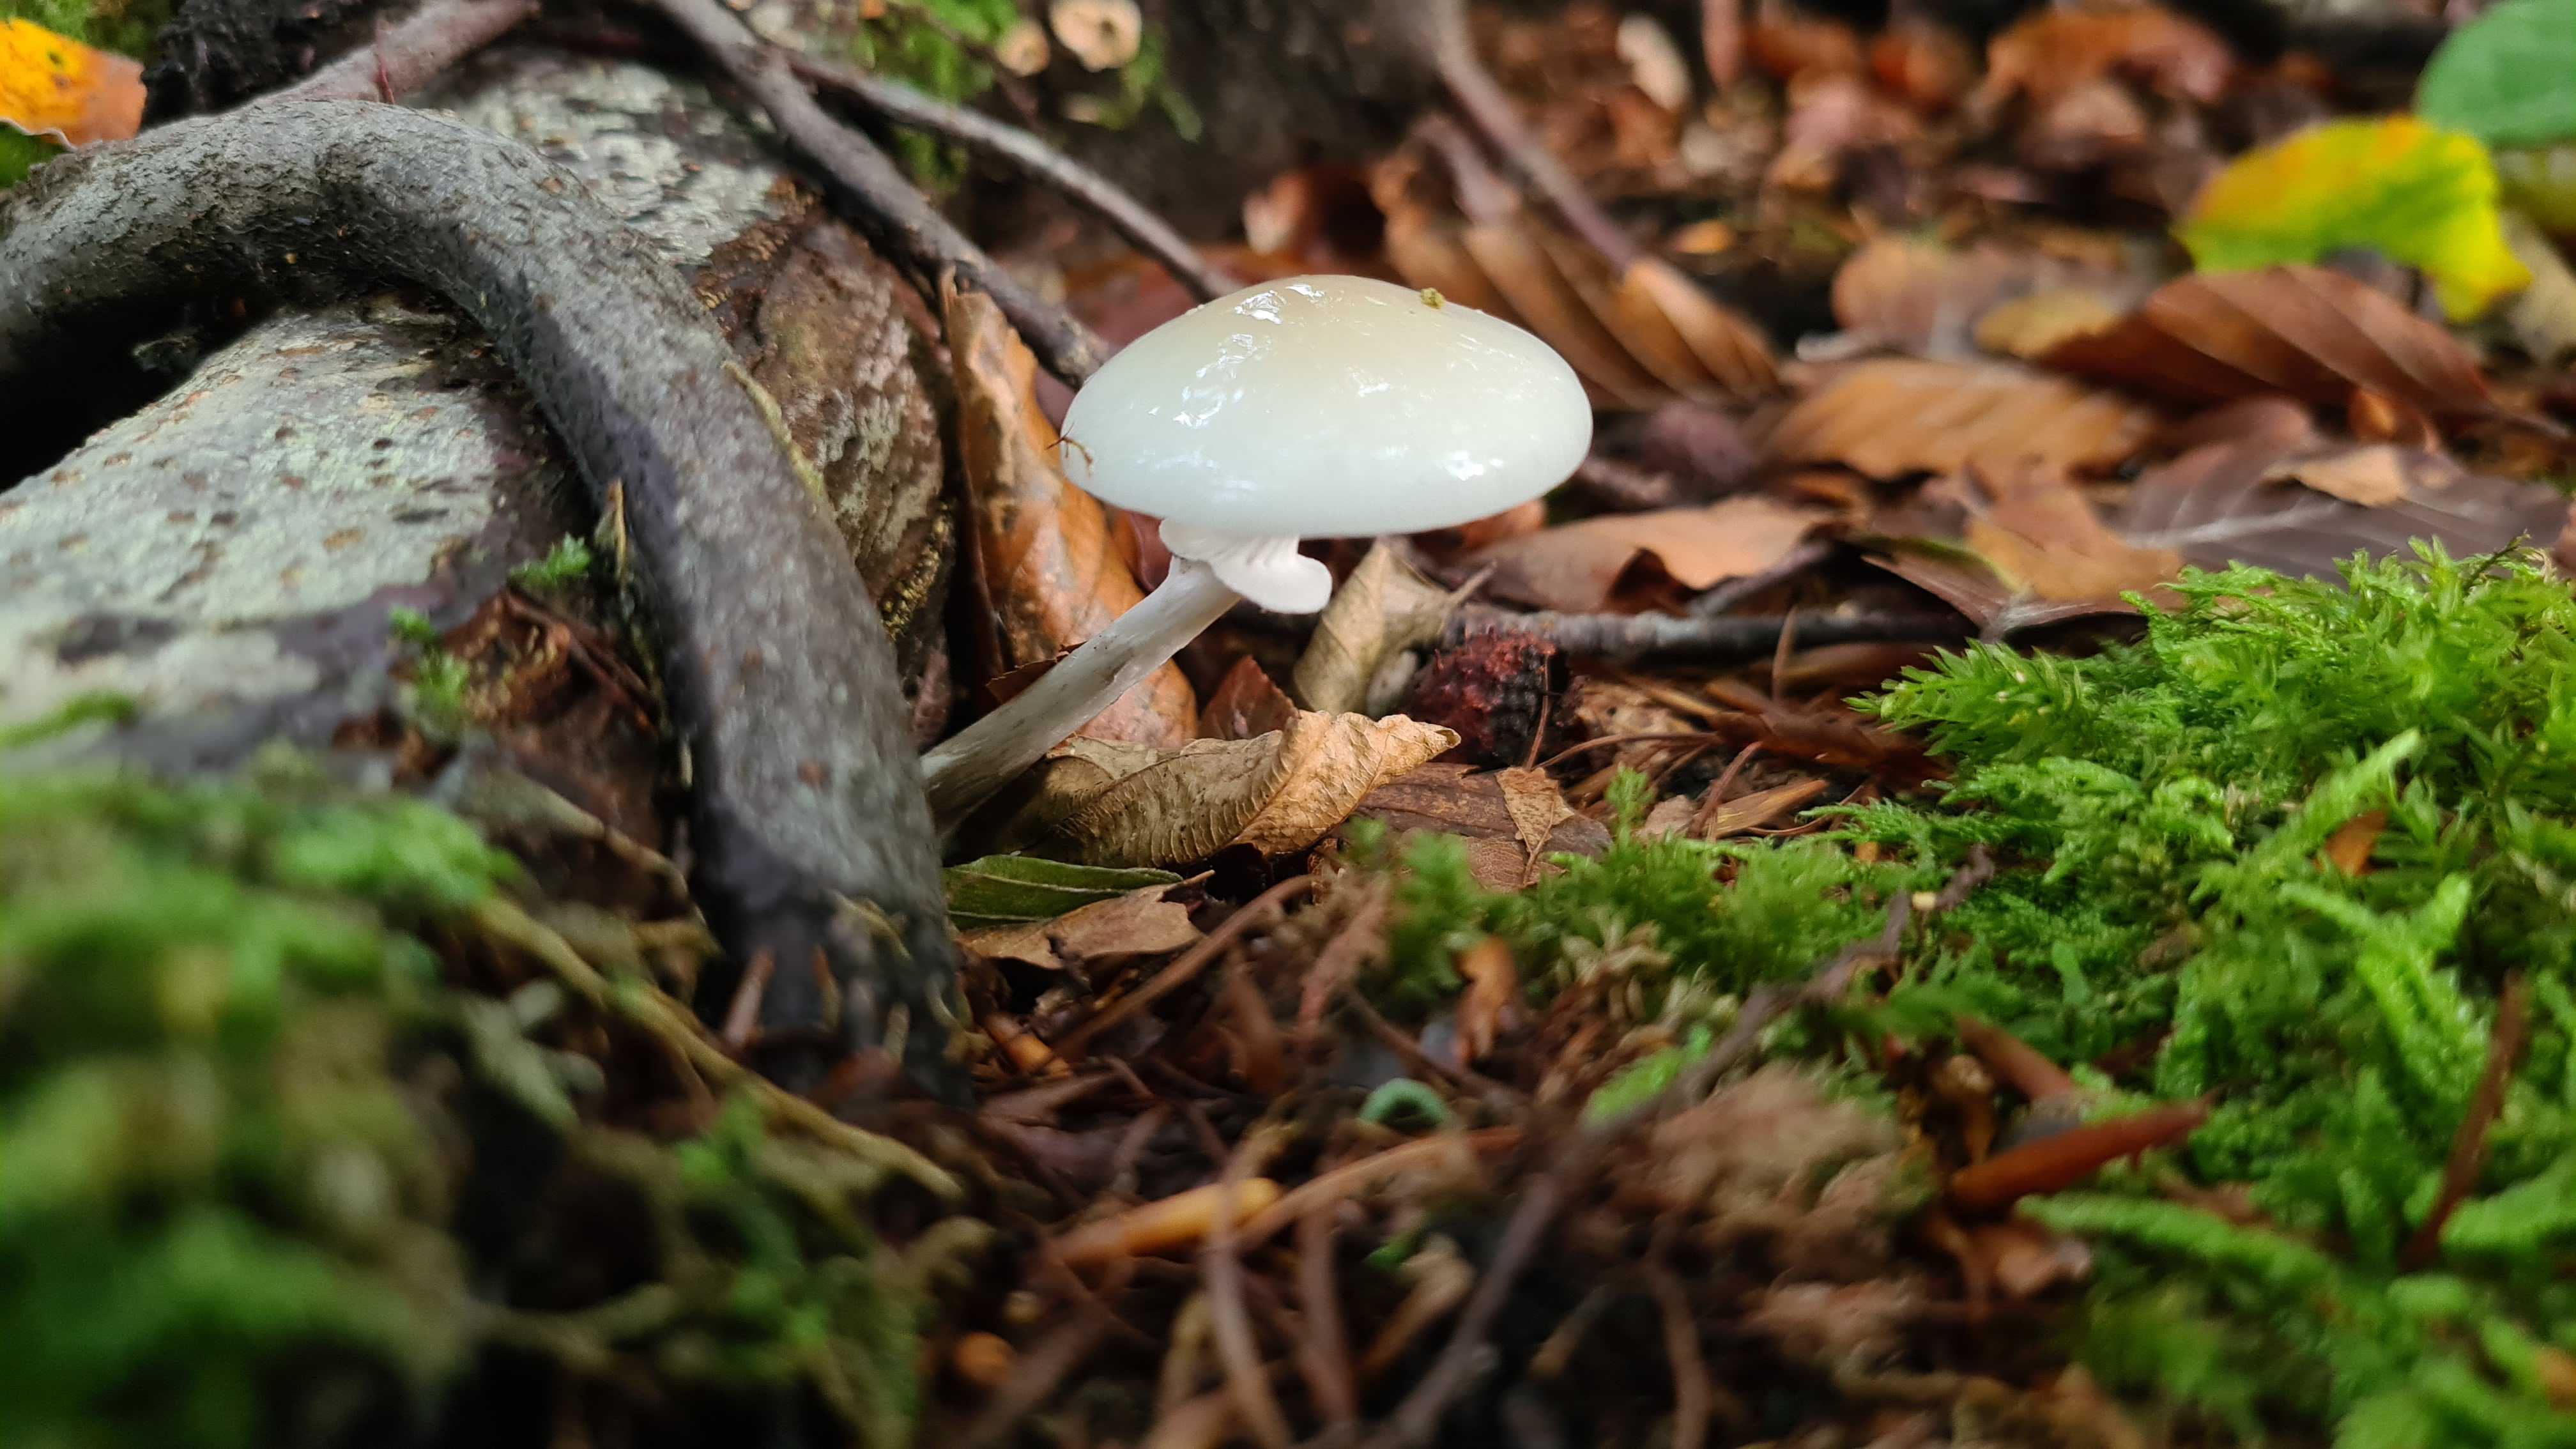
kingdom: Fungi
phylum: Basidiomycota
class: Agaricomycetes
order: Agaricales
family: Physalacriaceae
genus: Mucidula
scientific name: Mucidula mucida
